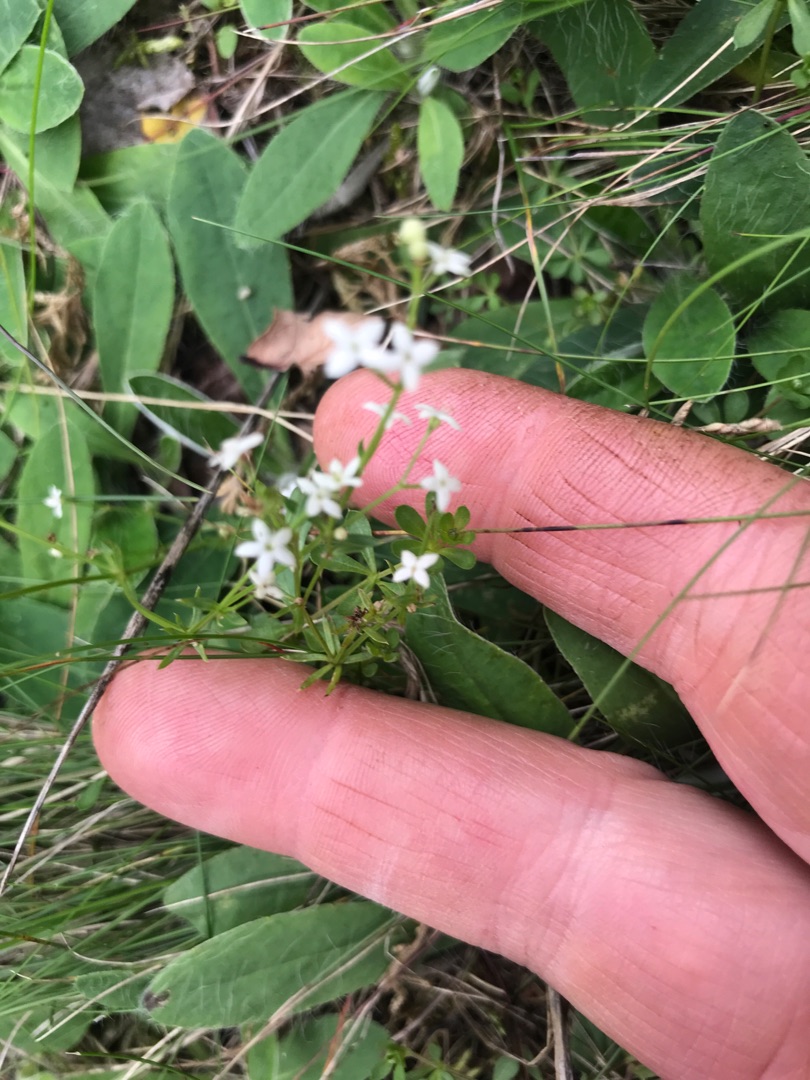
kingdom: Plantae
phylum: Tracheophyta
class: Magnoliopsida
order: Gentianales
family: Rubiaceae
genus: Galium
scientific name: Galium mollugo
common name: Hvid snerre
